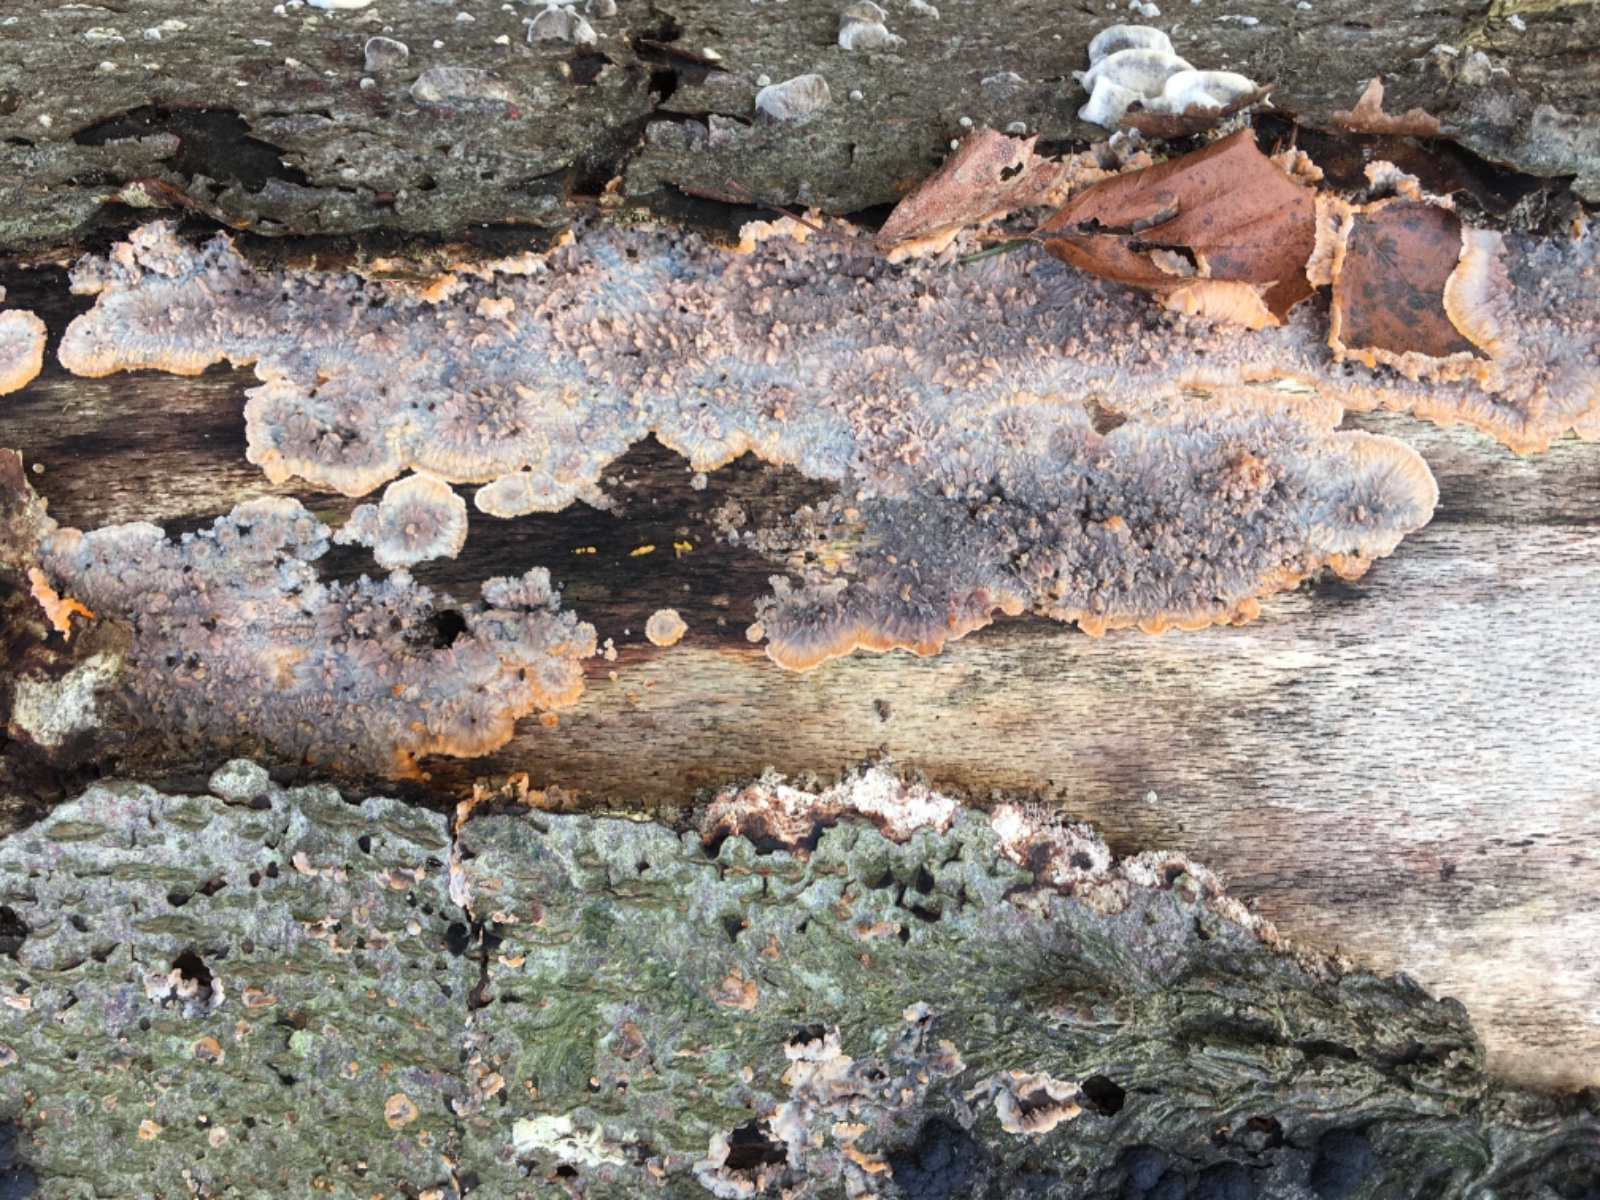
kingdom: Fungi
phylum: Basidiomycota
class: Agaricomycetes
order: Polyporales
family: Meruliaceae
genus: Phlebia
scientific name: Phlebia radiata
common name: stråle-åresvamp
